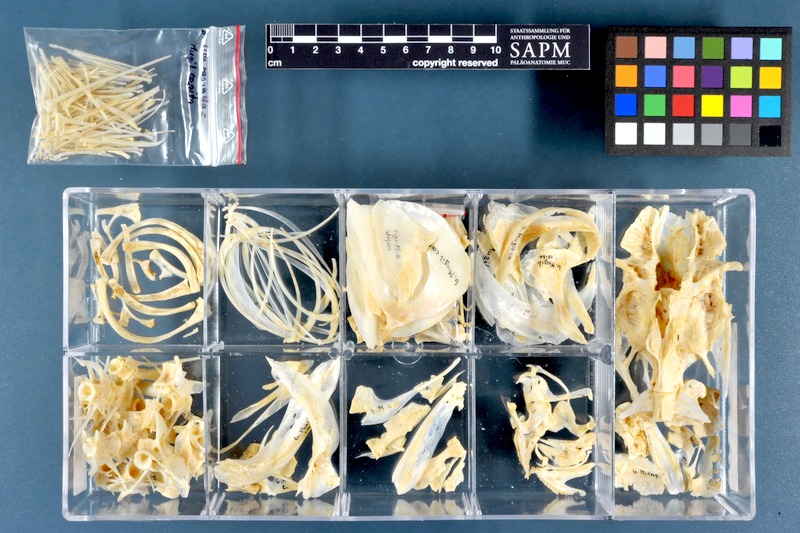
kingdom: Animalia
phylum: Chordata
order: Mugiliformes
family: Mugilidae
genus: Chelon
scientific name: Chelon ramada
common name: Thinlip grey mullet
